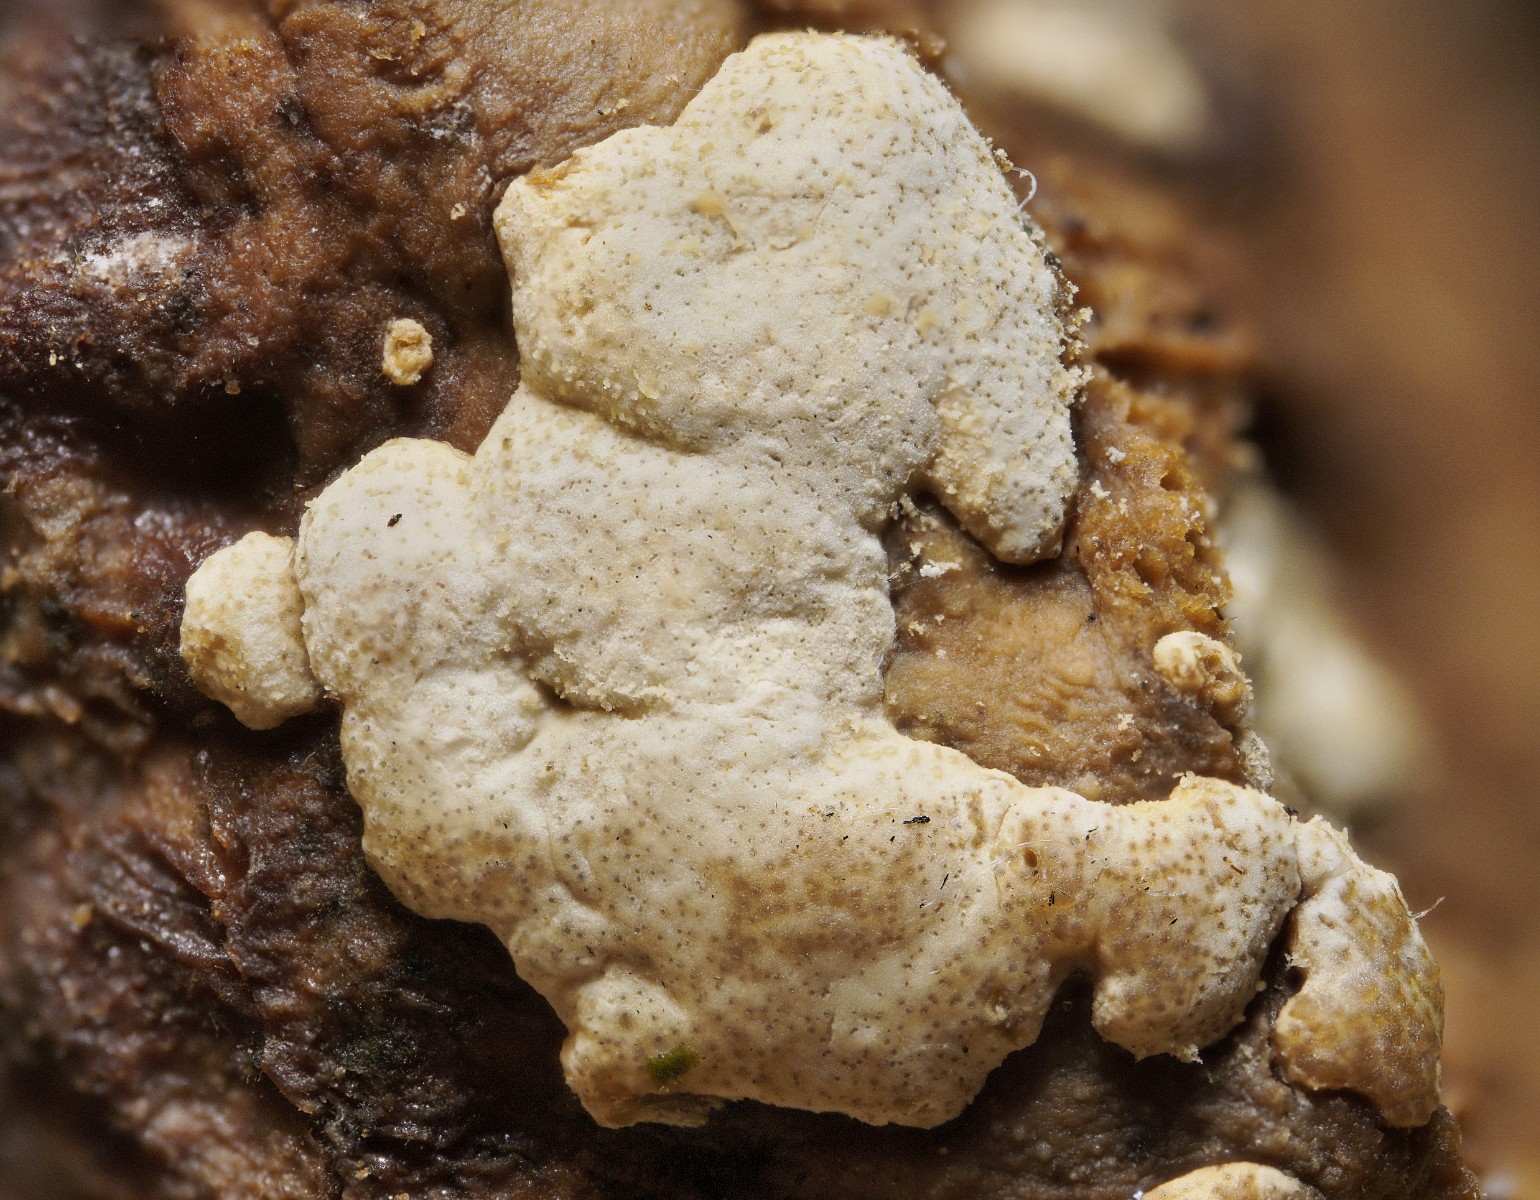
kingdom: Fungi
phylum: Ascomycota
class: Sordariomycetes
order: Hypocreales
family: Hypocreaceae
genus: Trichoderma
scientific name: Trichoderma pulvinatum
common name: snyltende kødkerne
